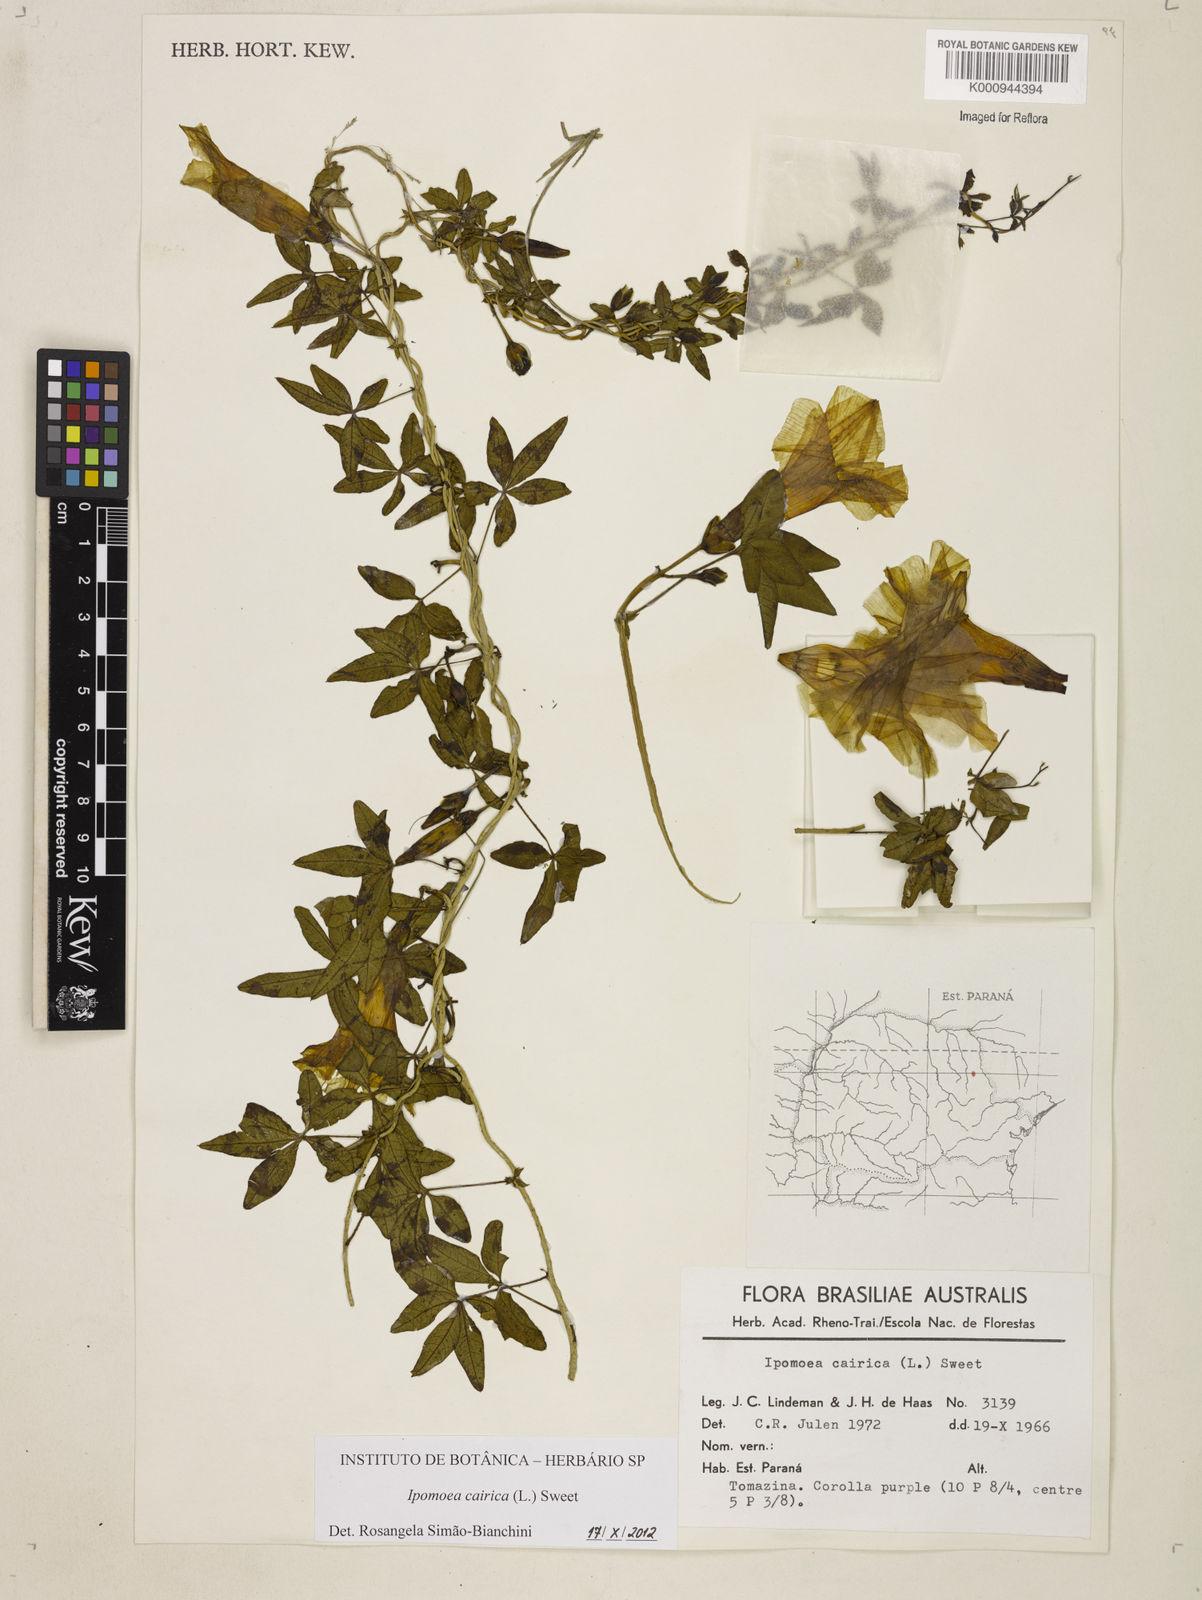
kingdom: Plantae
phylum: Tracheophyta
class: Magnoliopsida
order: Solanales
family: Convolvulaceae
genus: Ipomoea
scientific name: Ipomoea cairica
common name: Mile a minute vine
